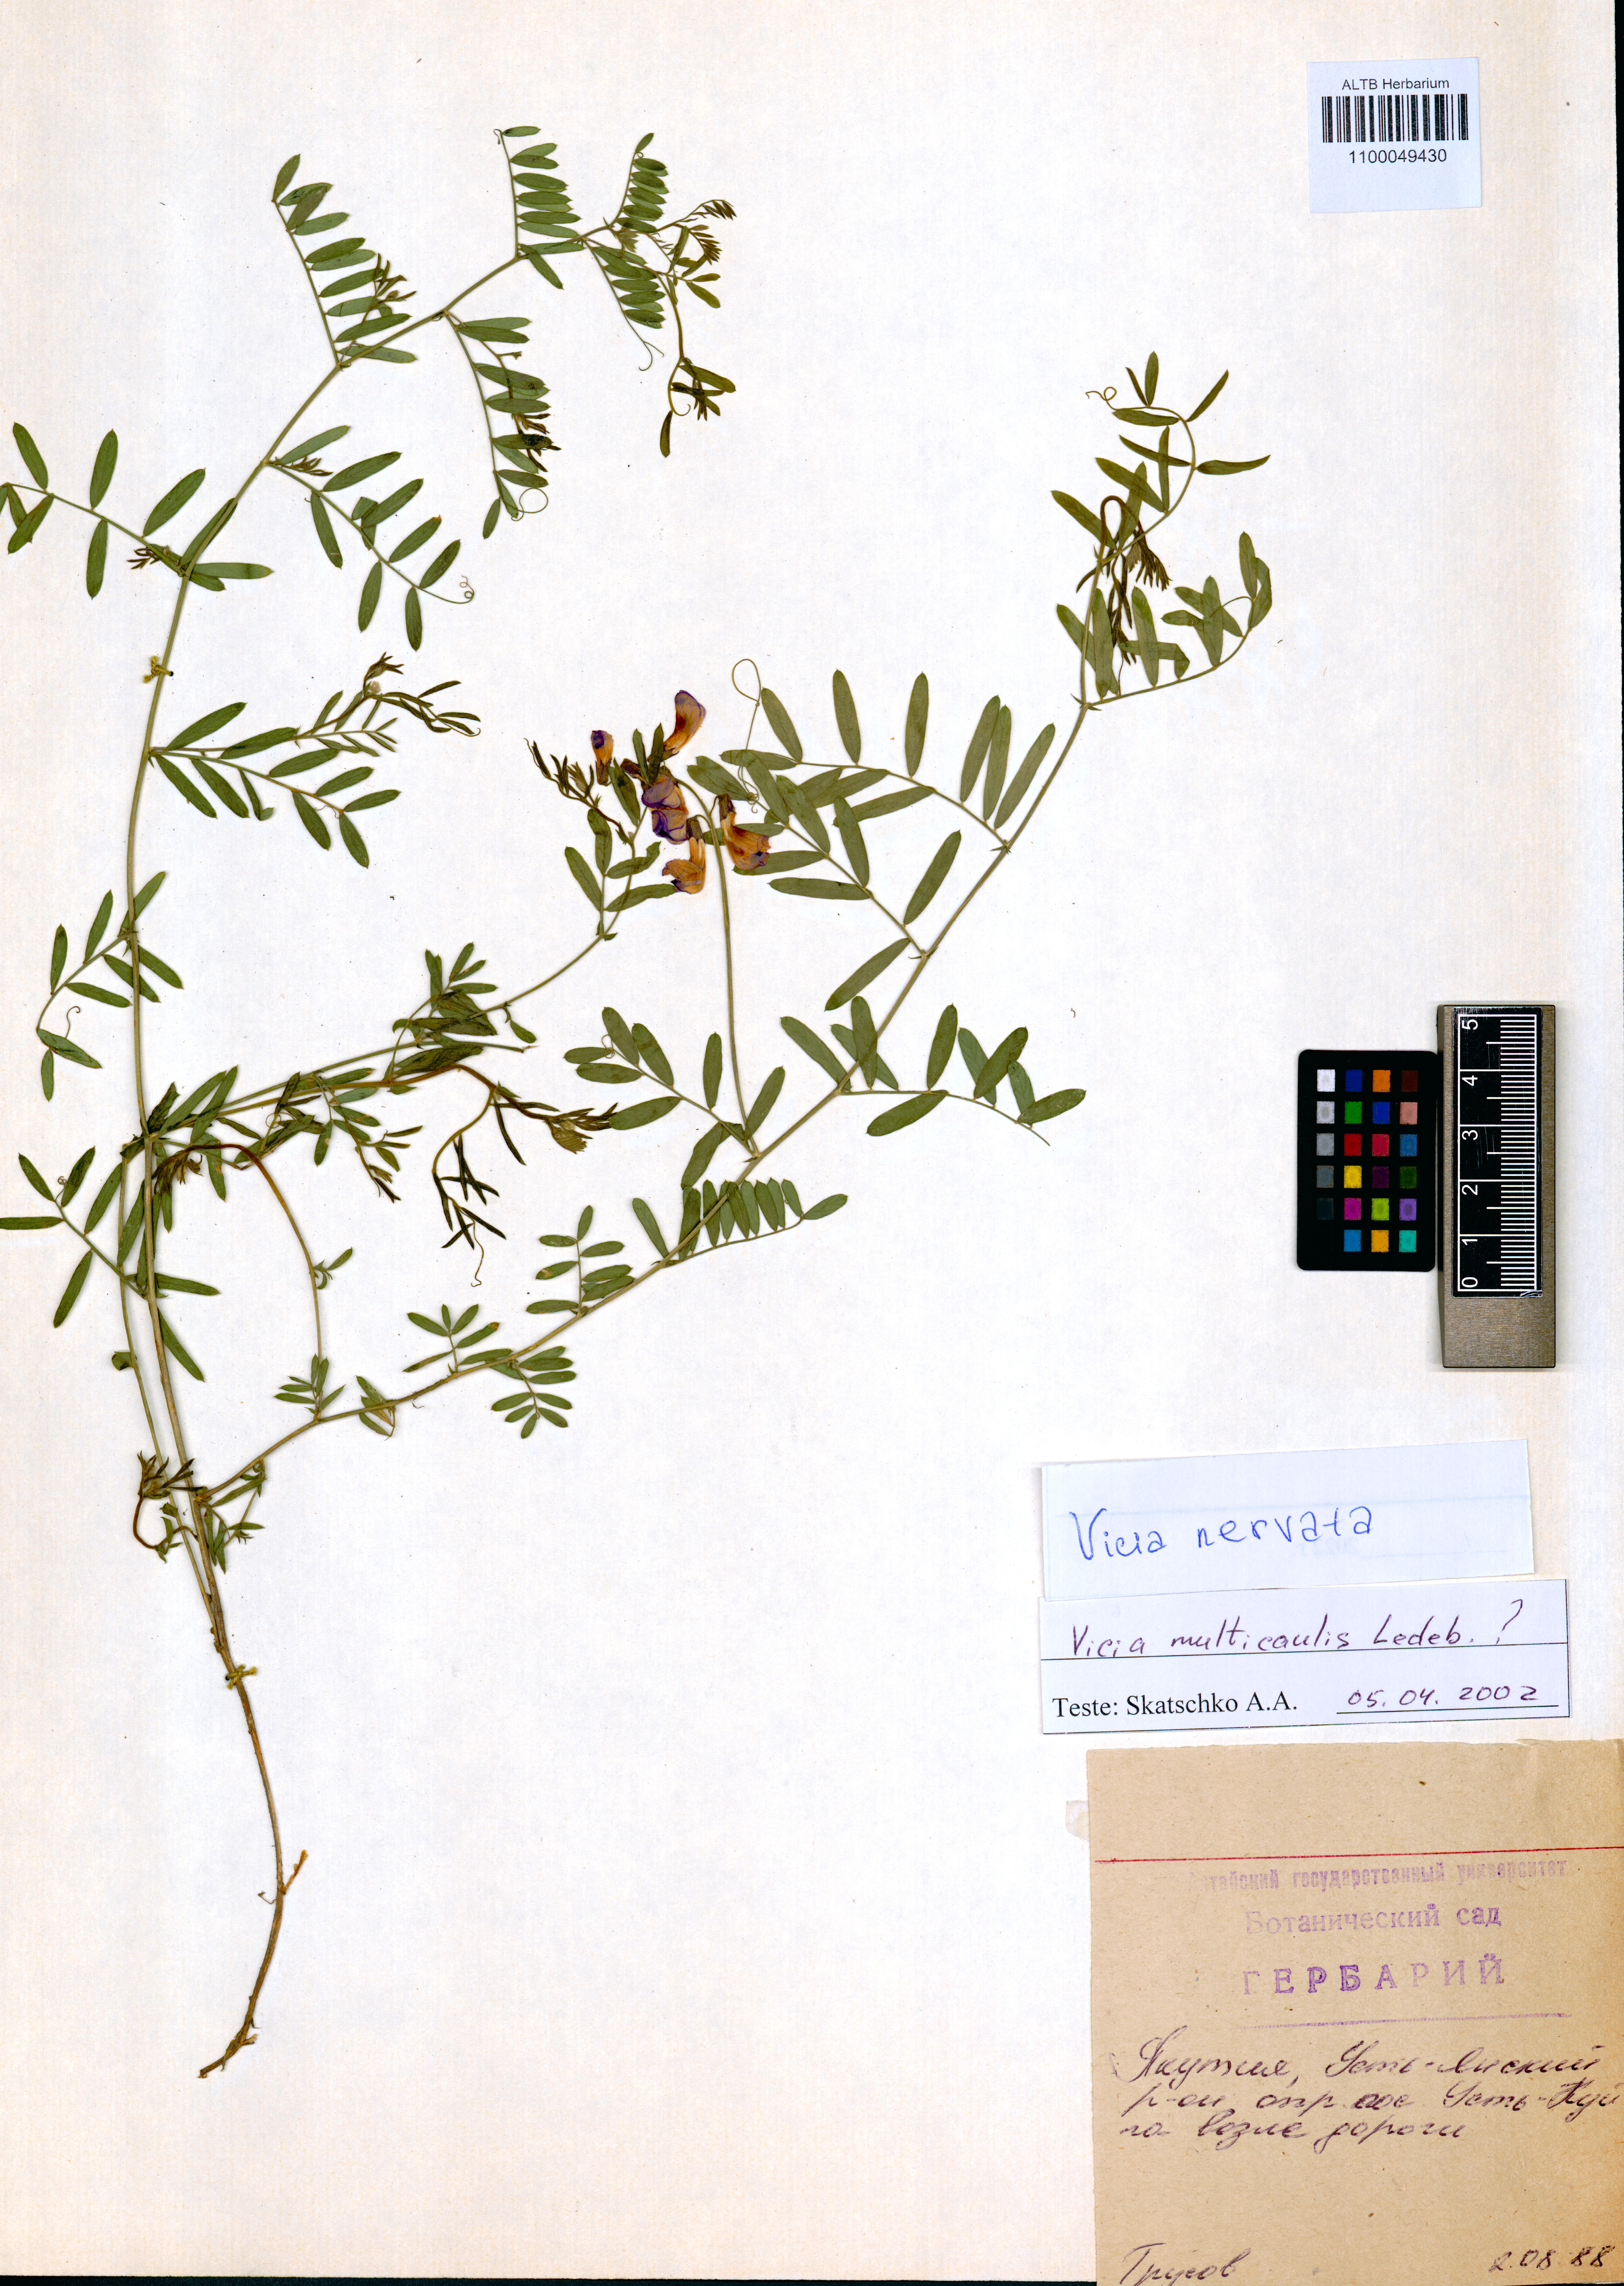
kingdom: Plantae
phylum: Tracheophyta
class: Magnoliopsida
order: Fabales
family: Fabaceae
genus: Vicia
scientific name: Vicia multicaulis
